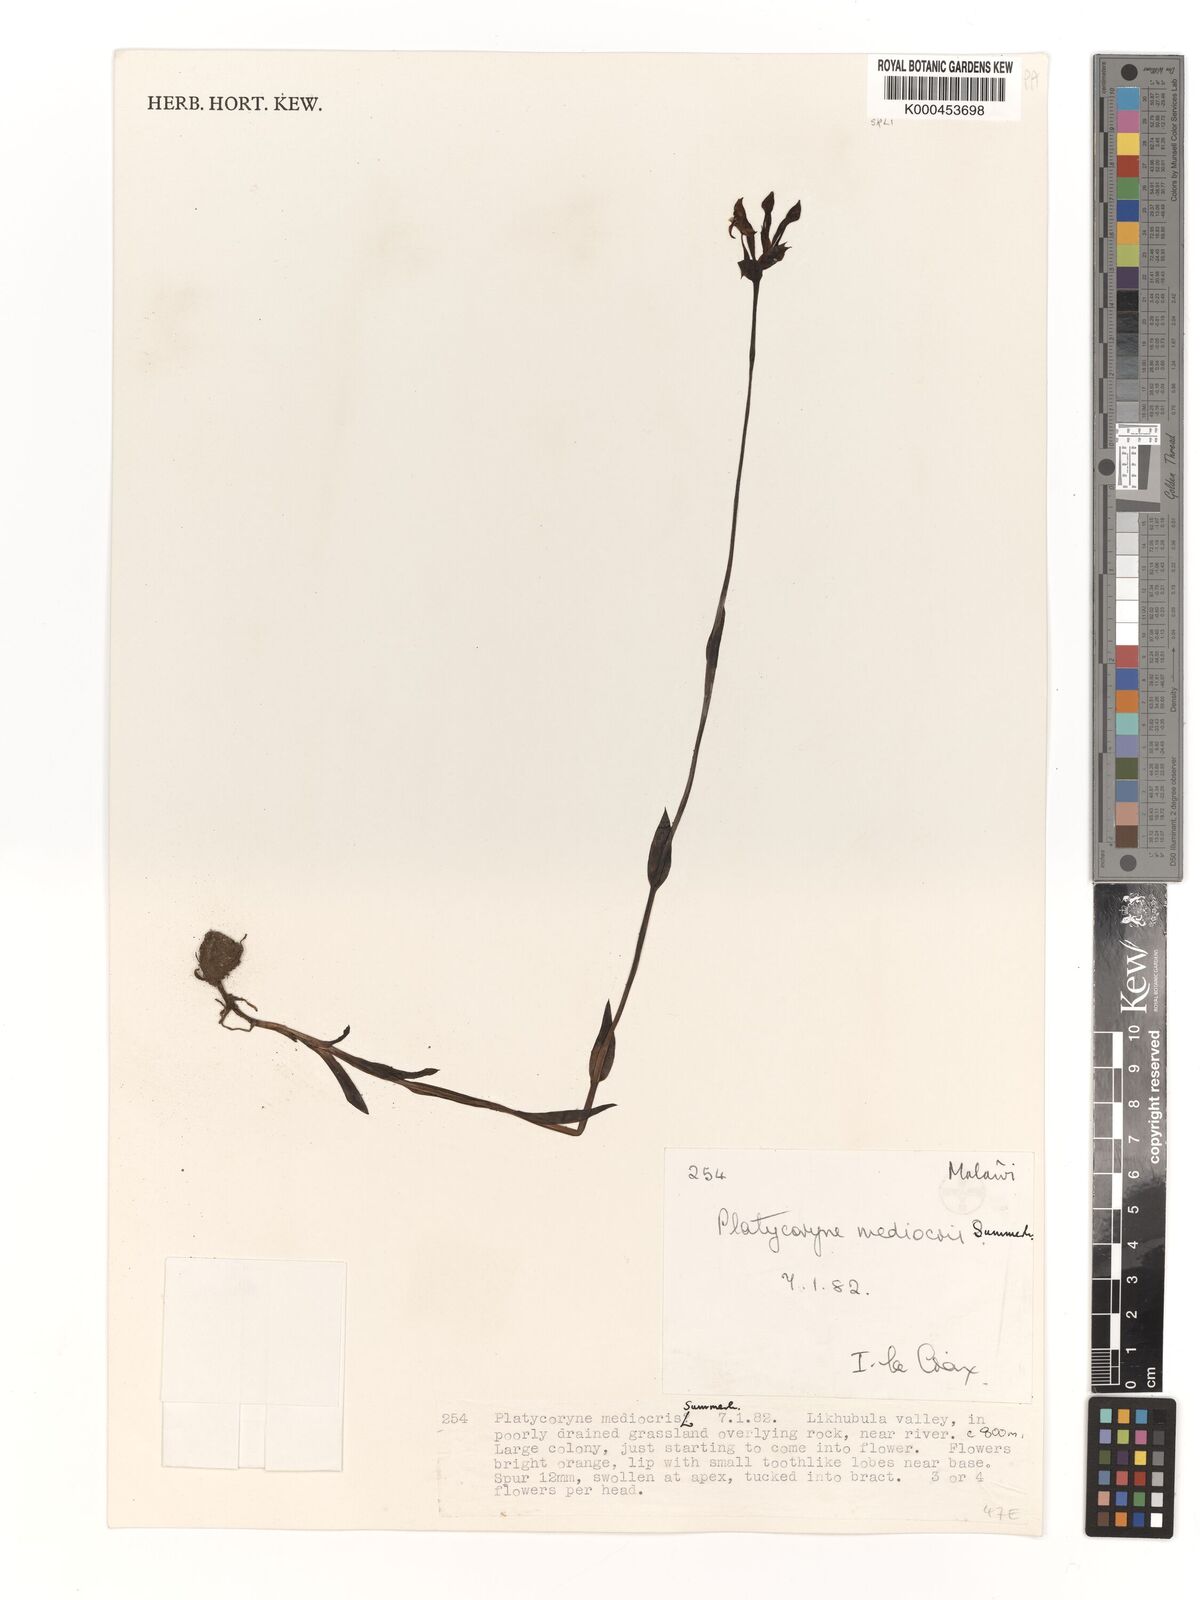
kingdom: Plantae
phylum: Tracheophyta
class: Liliopsida
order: Asparagales
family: Orchidaceae
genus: Platycoryne
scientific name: Platycoryne mediocris
